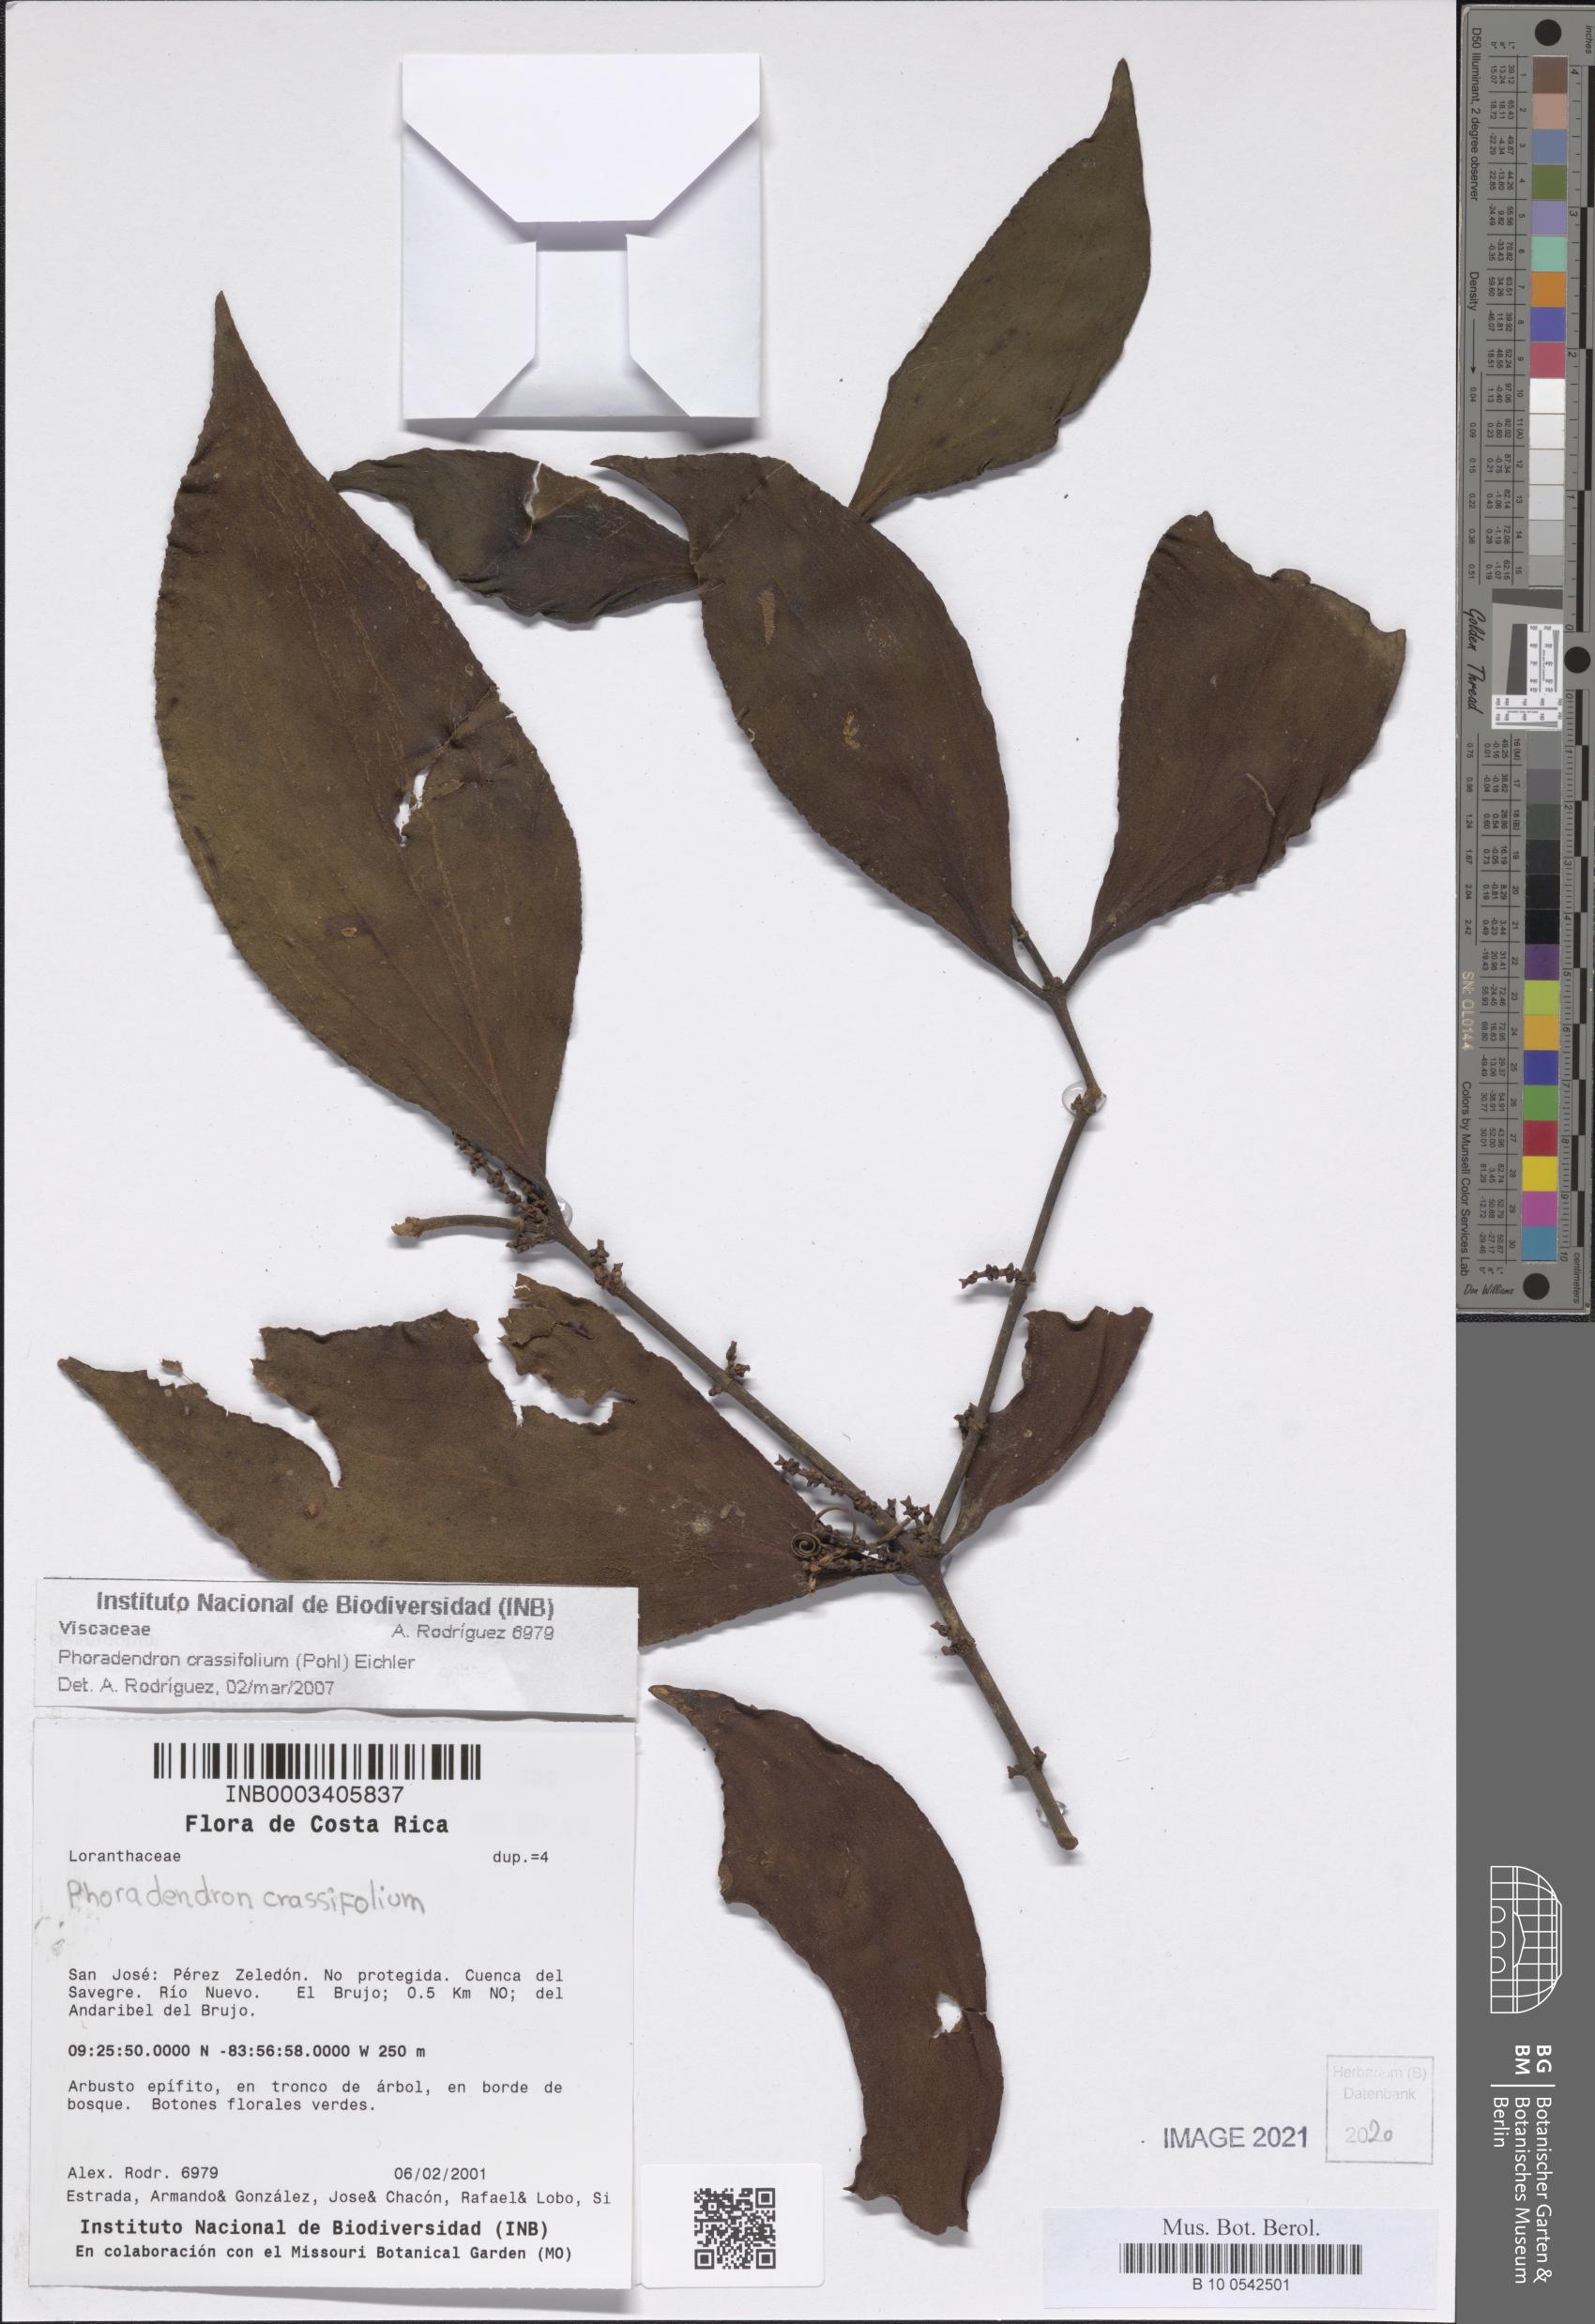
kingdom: Plantae
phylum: Tracheophyta
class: Magnoliopsida
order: Santalales
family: Viscaceae
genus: Phoradendron
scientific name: Phoradendron crassifolium
